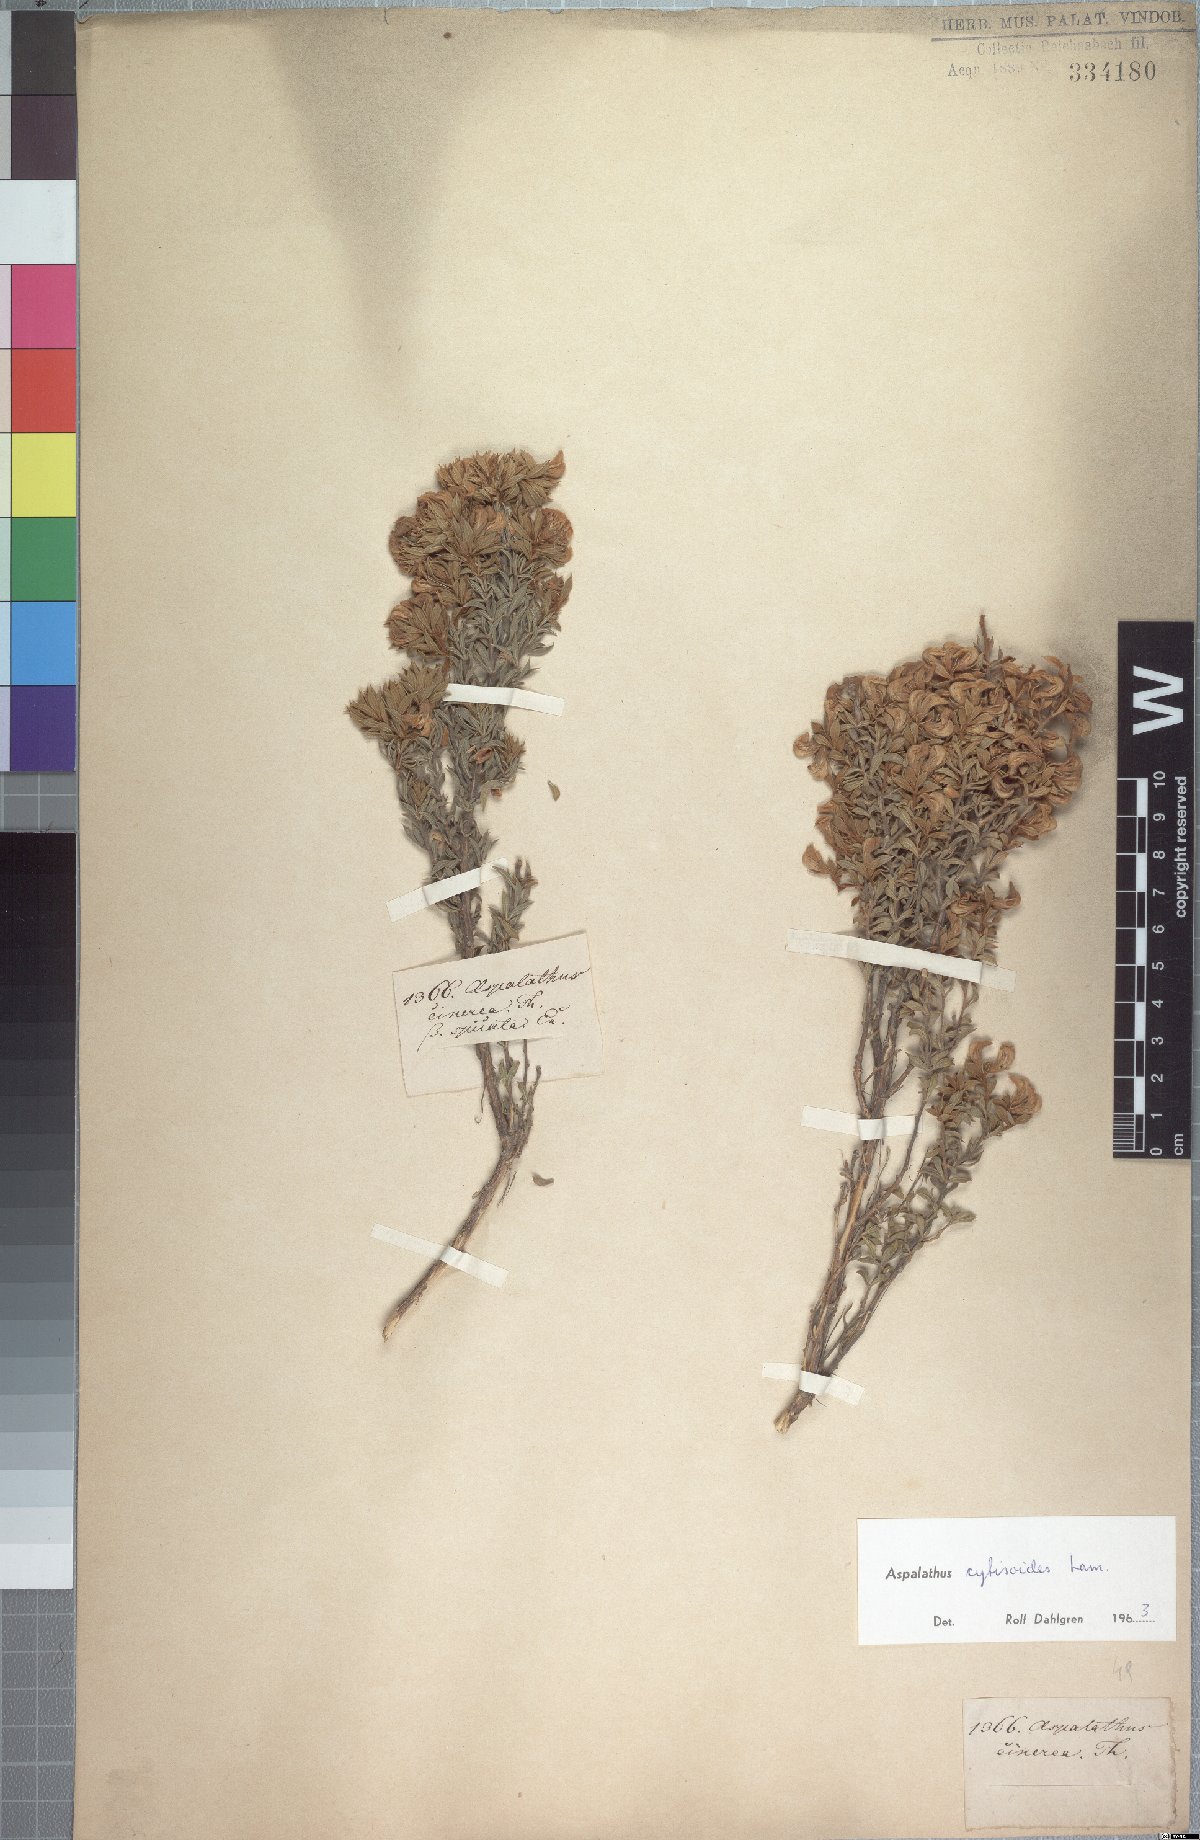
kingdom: Plantae
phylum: Tracheophyta
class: Magnoliopsida
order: Fabales
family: Fabaceae
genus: Aspalathus
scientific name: Aspalathus cytisoides
